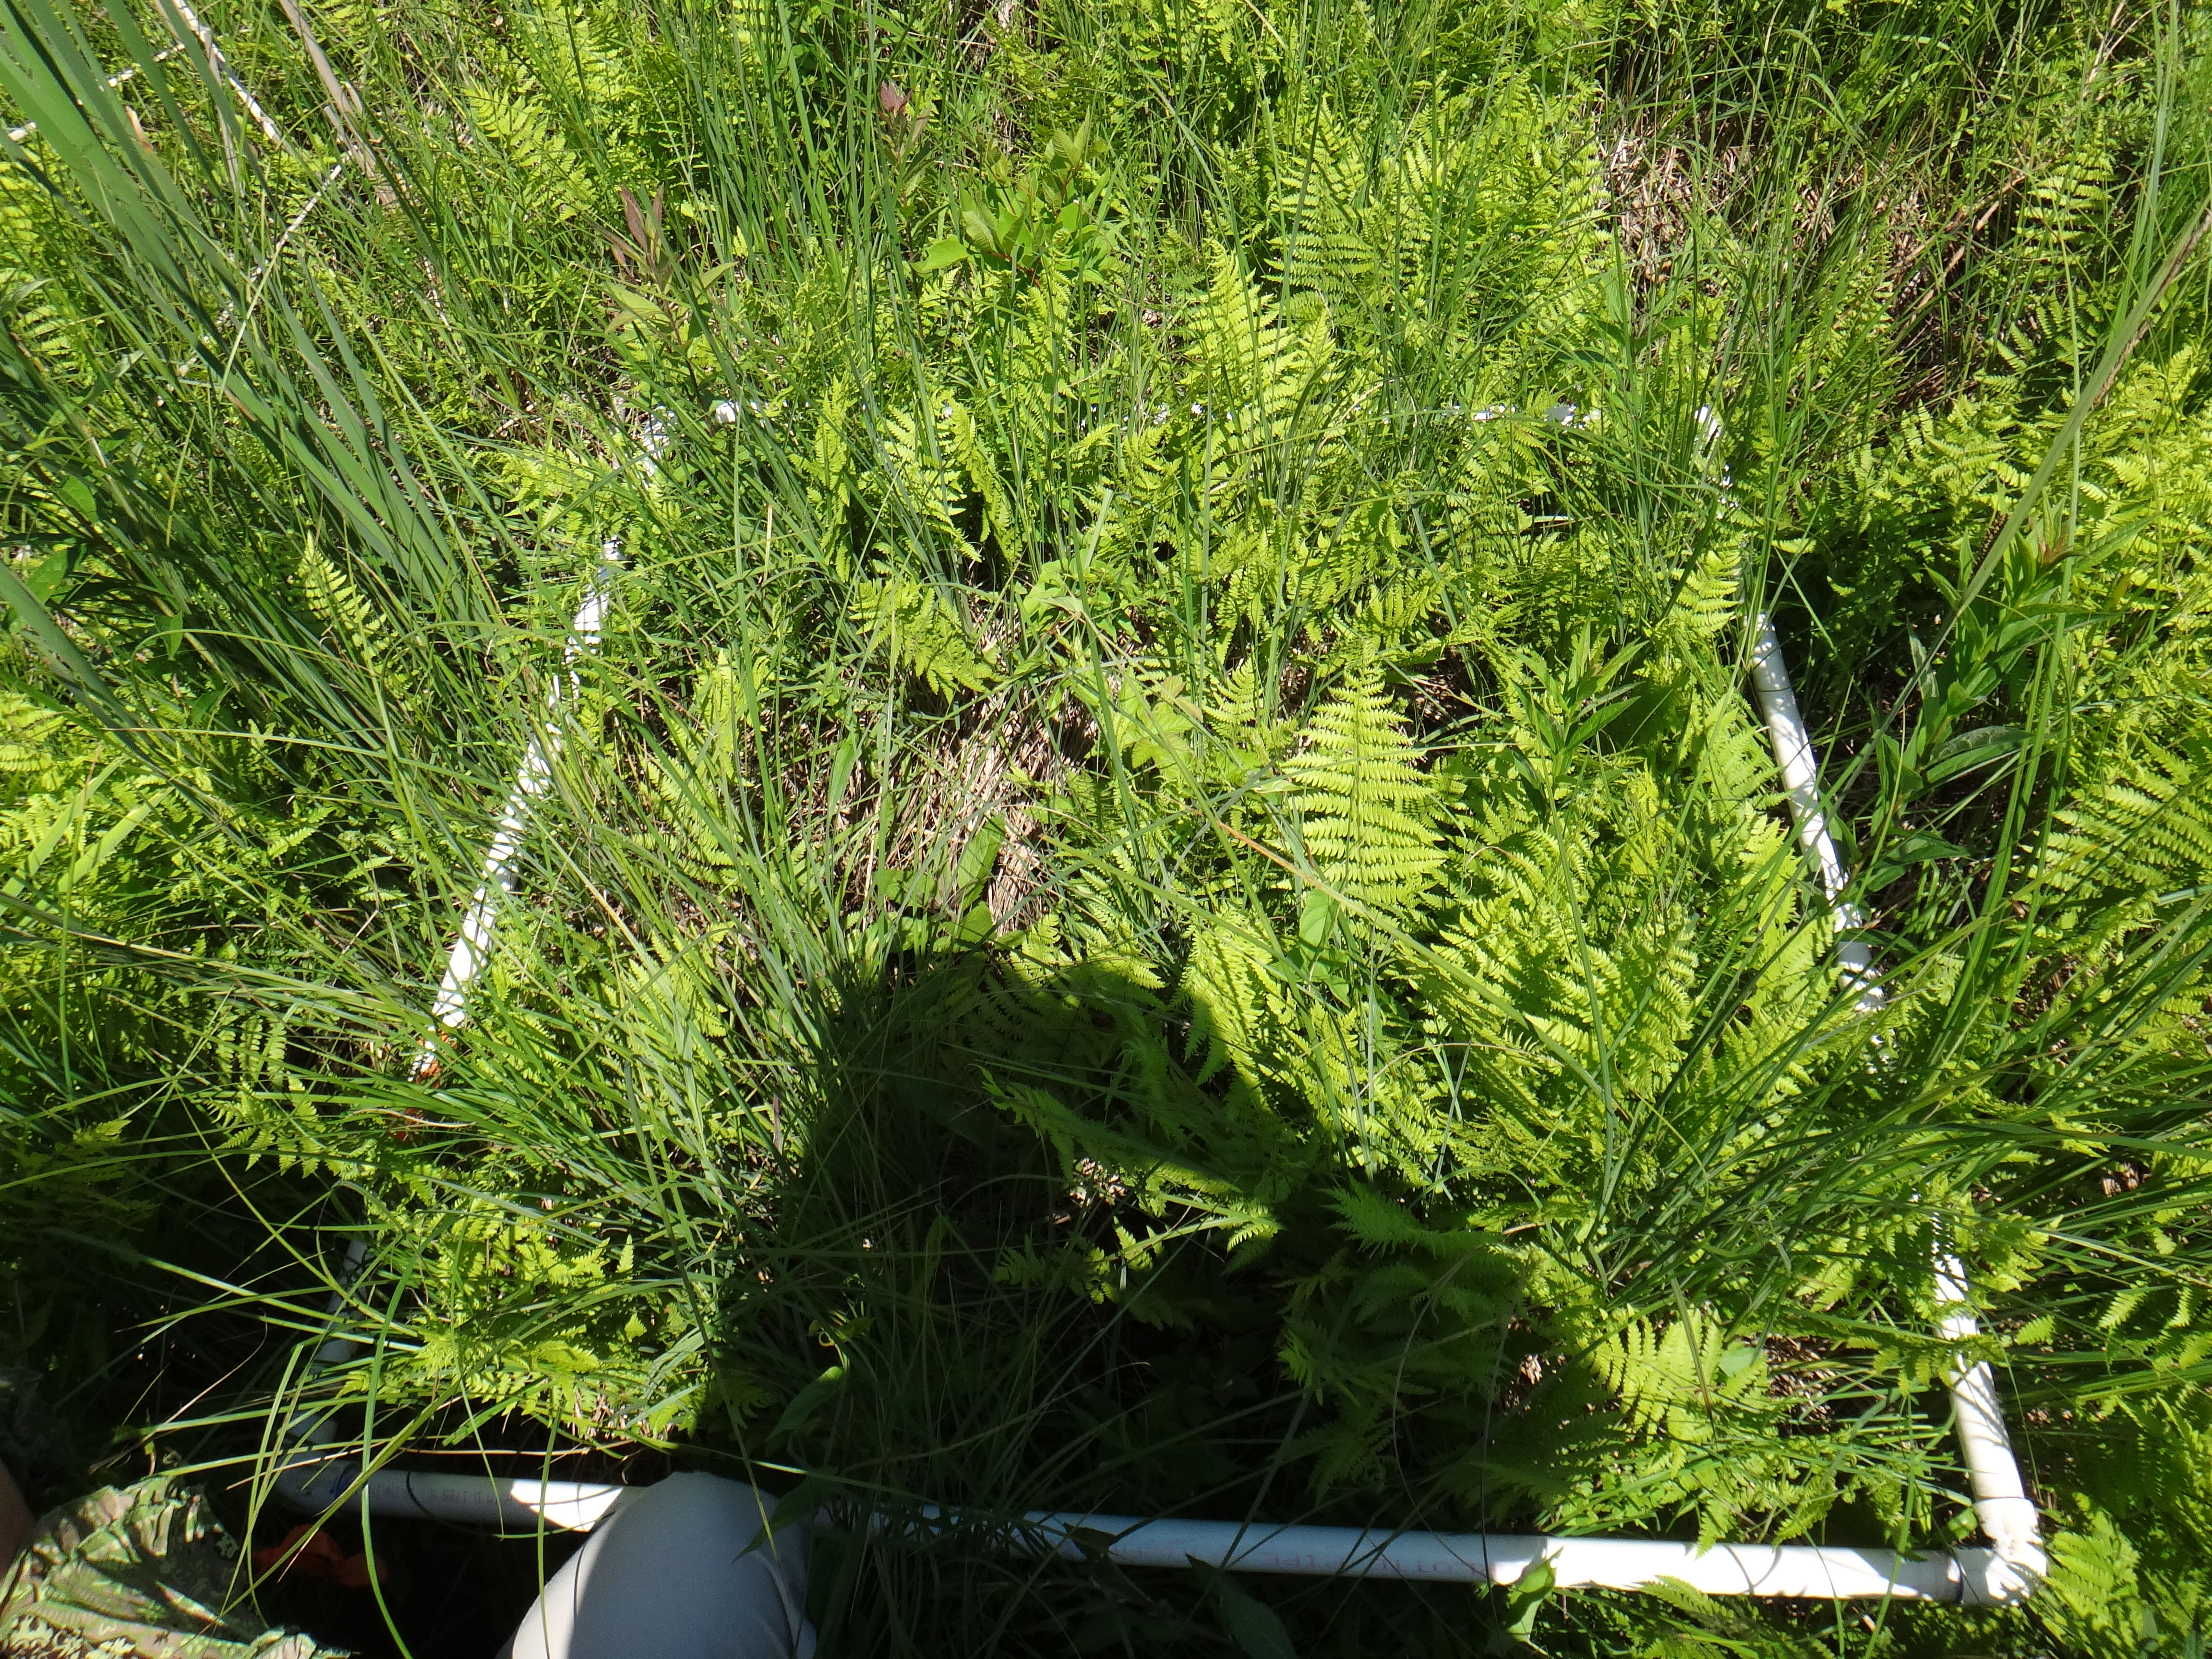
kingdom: Plantae
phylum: Tracheophyta
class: Liliopsida
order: Poales
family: Cyperaceae
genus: Carex
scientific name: Carex stricta
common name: Hummock sedge
